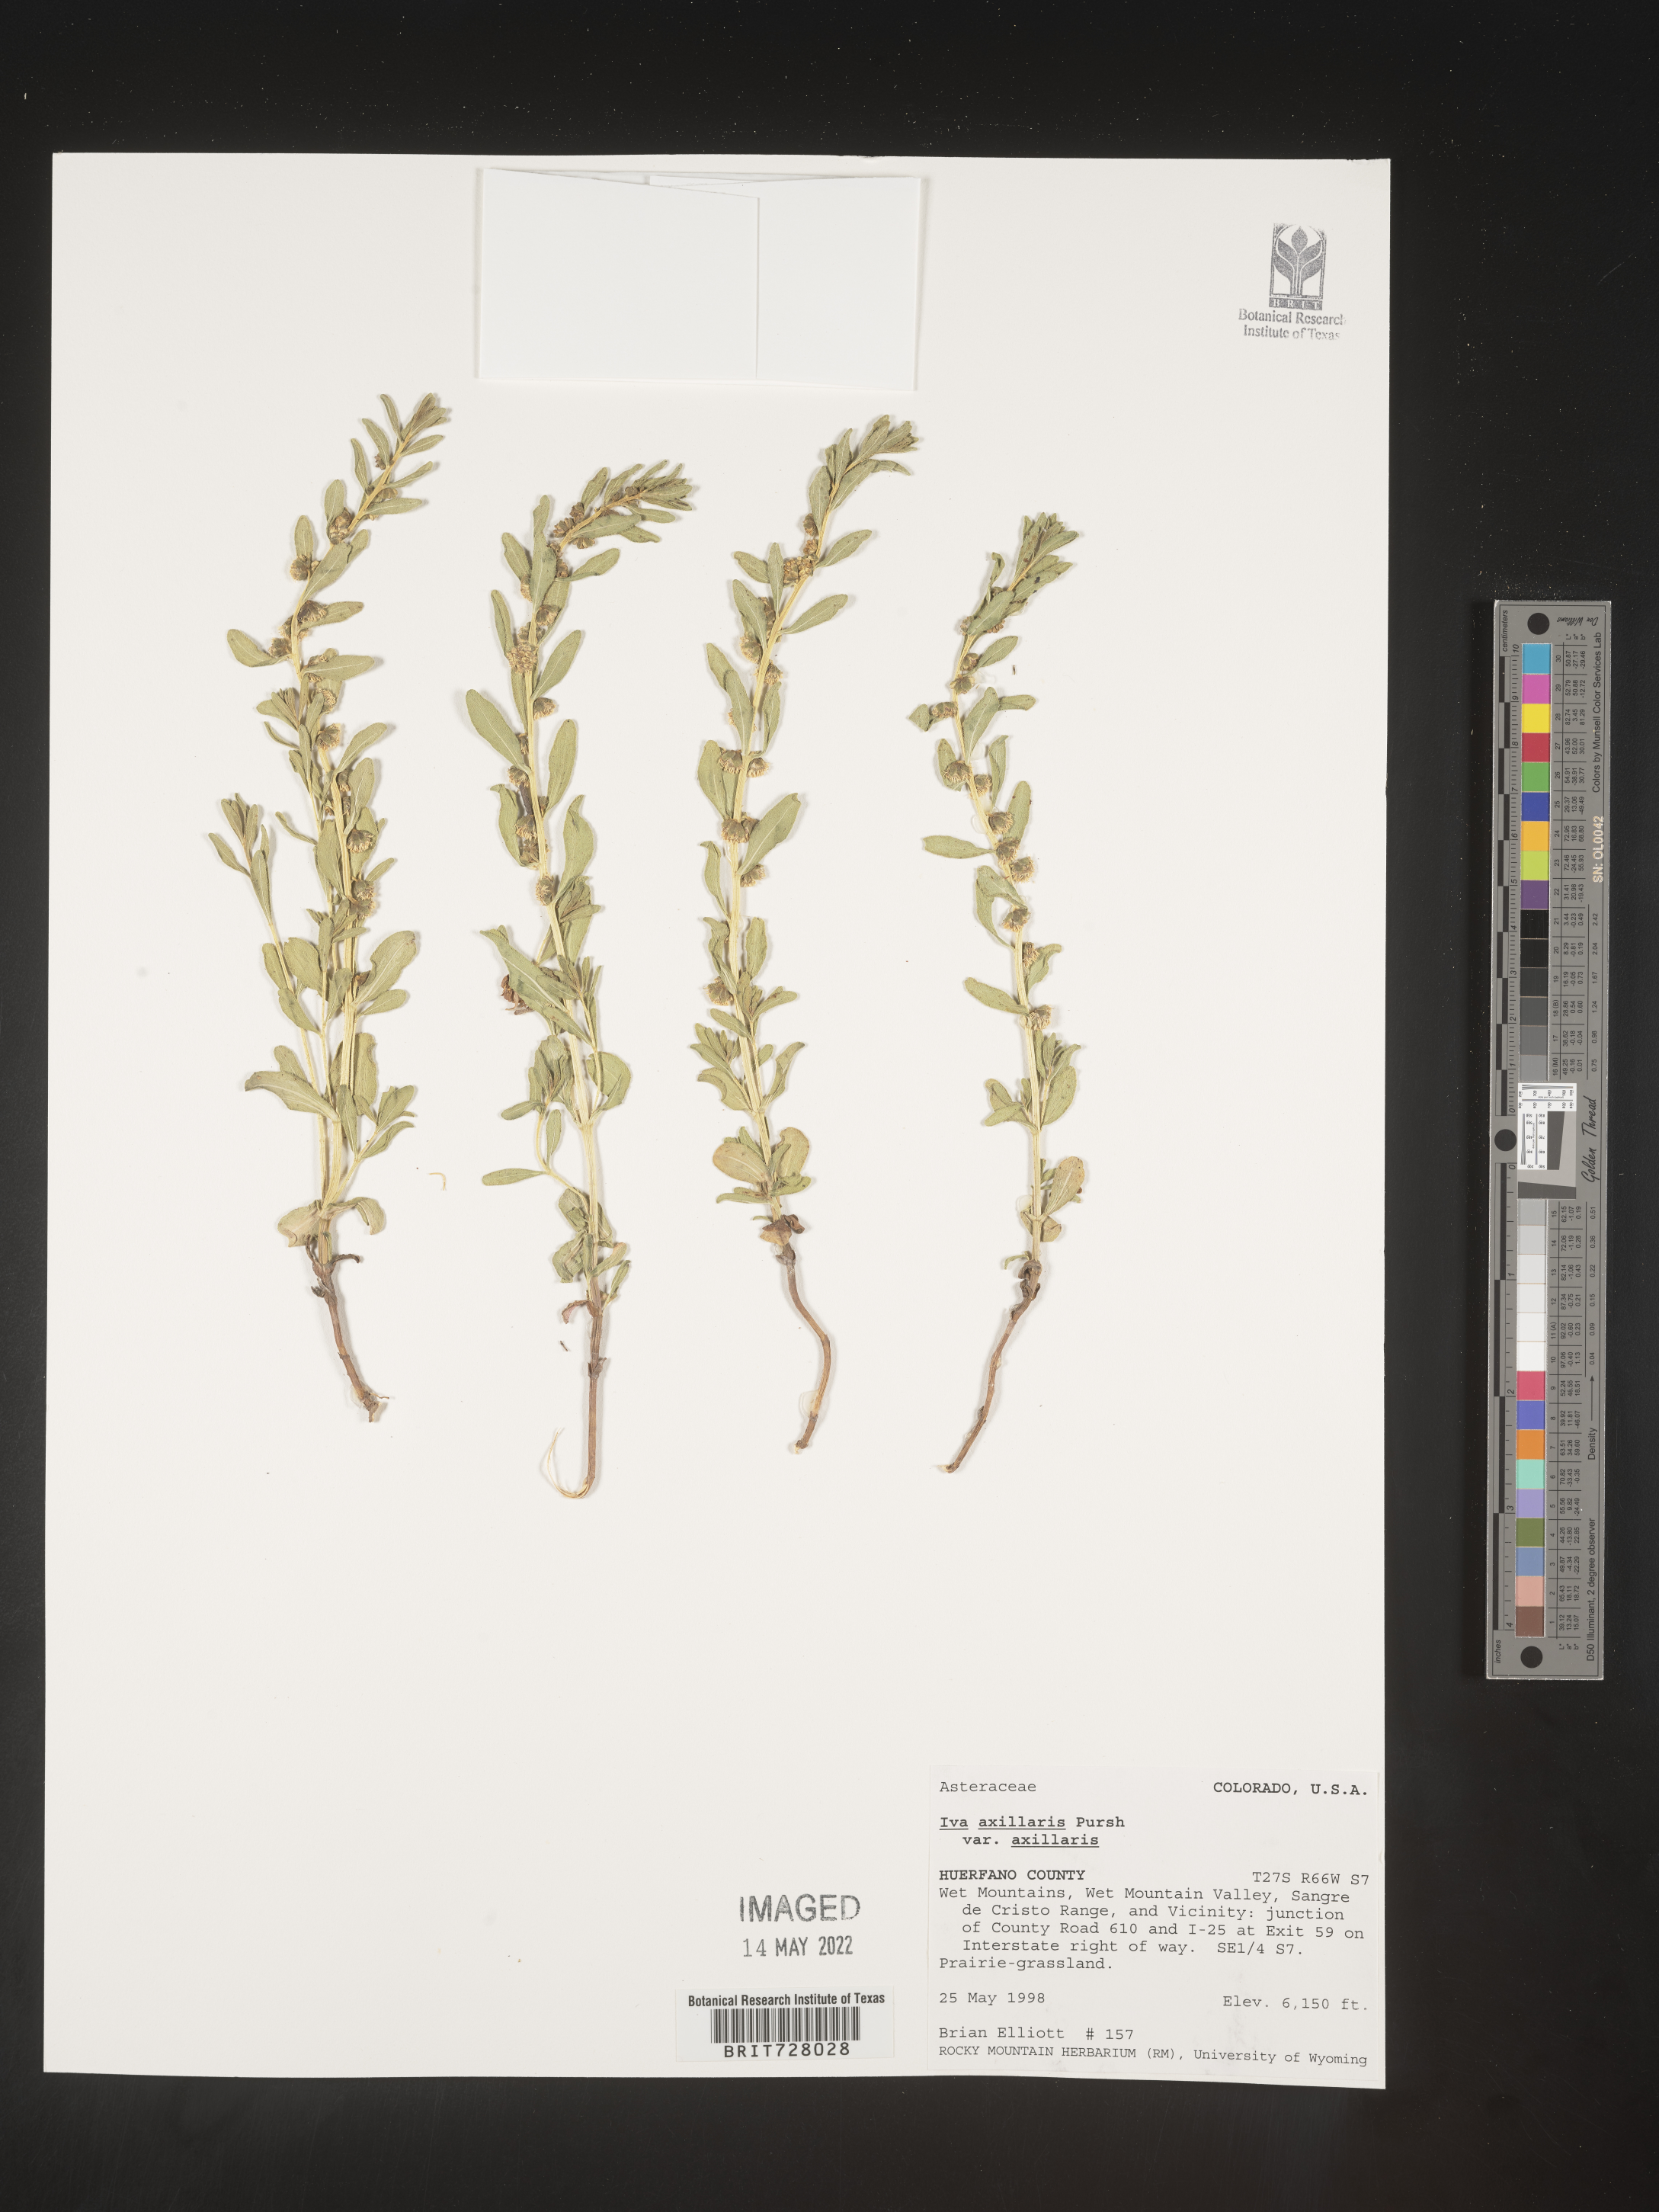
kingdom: Plantae
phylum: Tracheophyta
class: Magnoliopsida
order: Asterales
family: Asteraceae
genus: Iva
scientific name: Iva axillaris
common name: Poverty sumpweed
